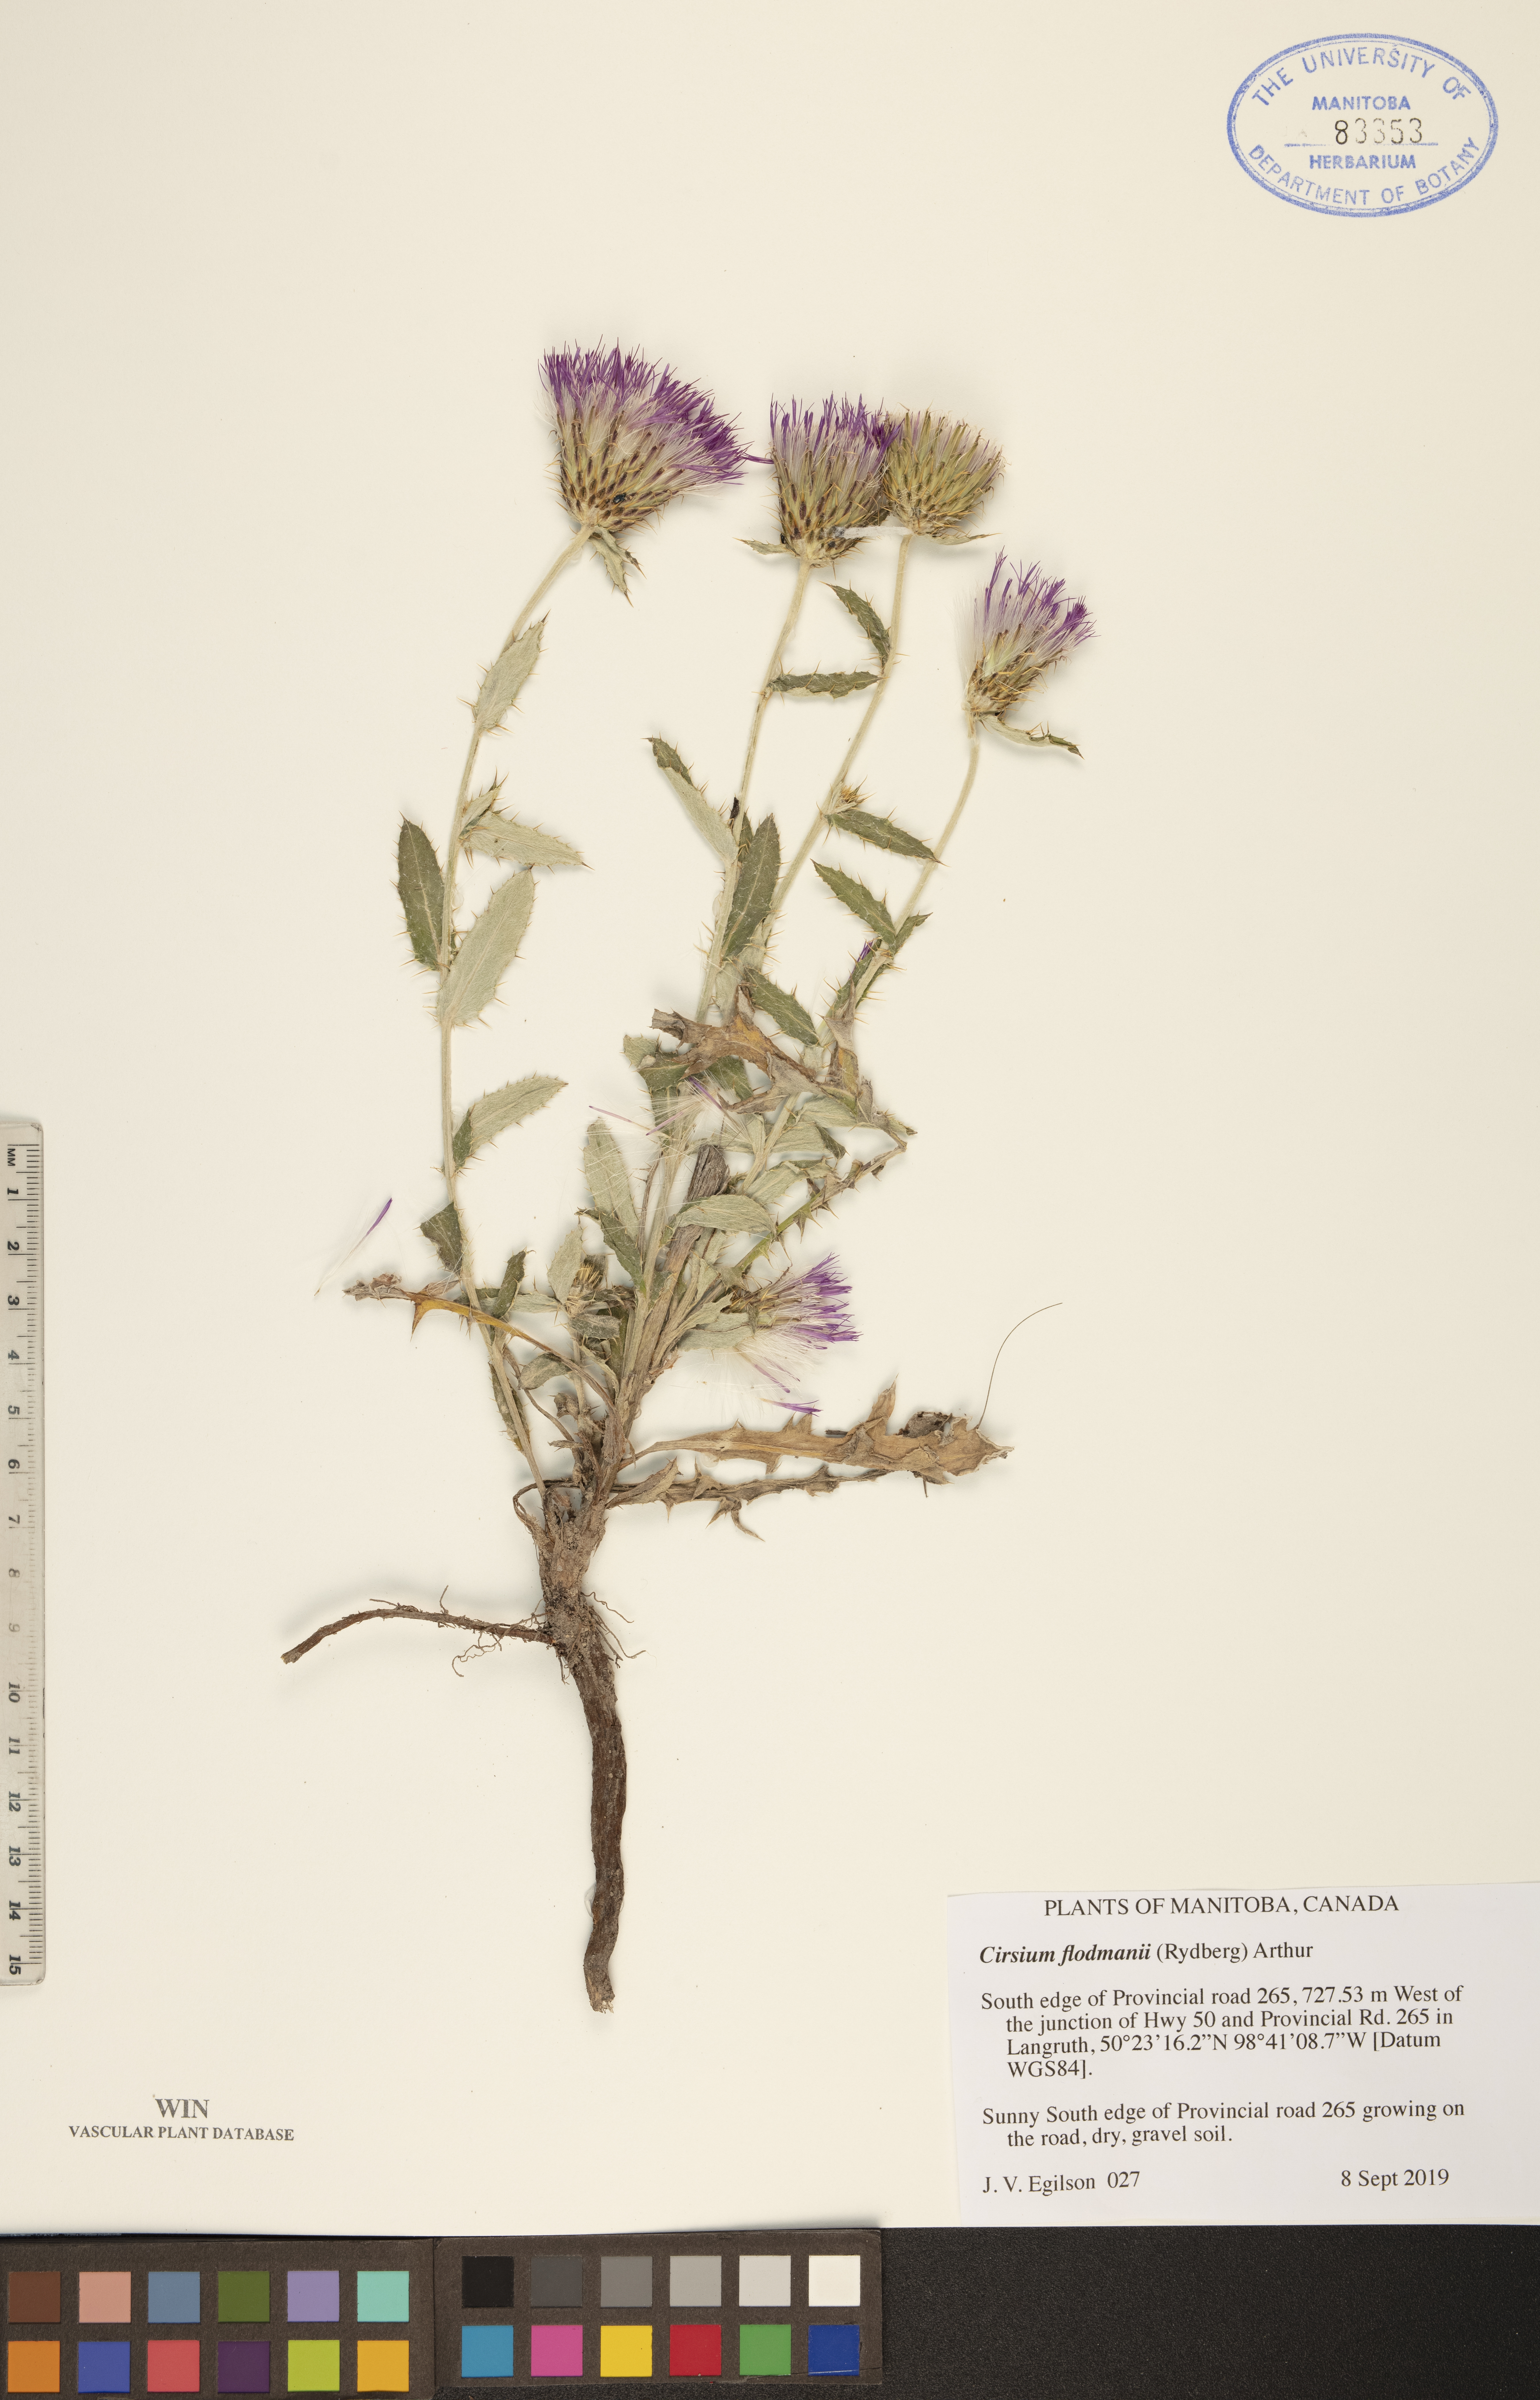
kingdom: Plantae
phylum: Tracheophyta
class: Magnoliopsida
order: Asterales
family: Asteraceae
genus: Cirsium
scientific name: Cirsium flodmanii
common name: Flodman's thistle
